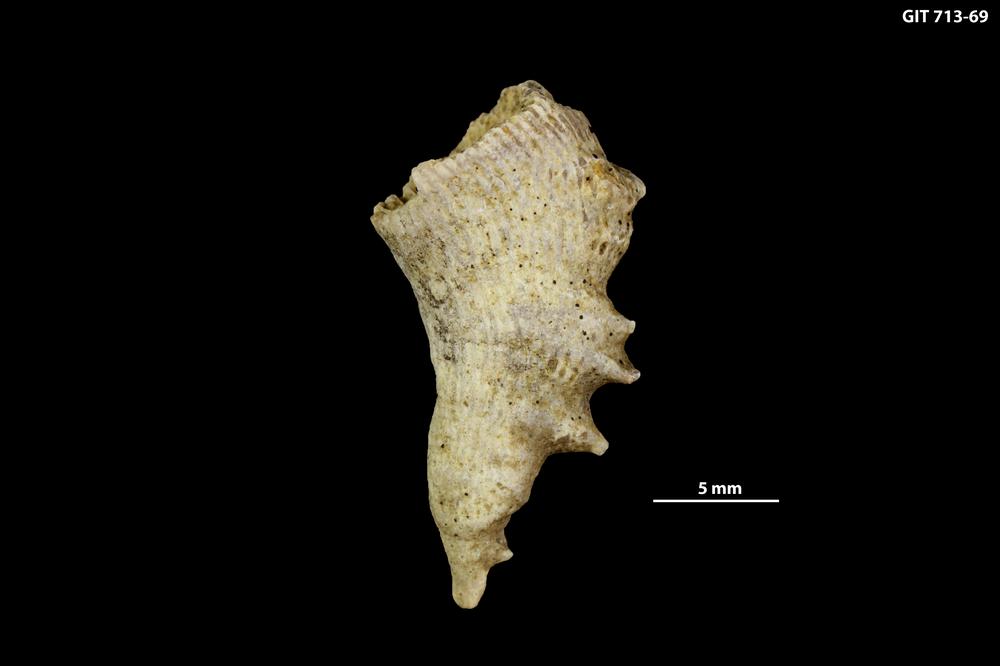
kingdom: Animalia
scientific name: Animalia
